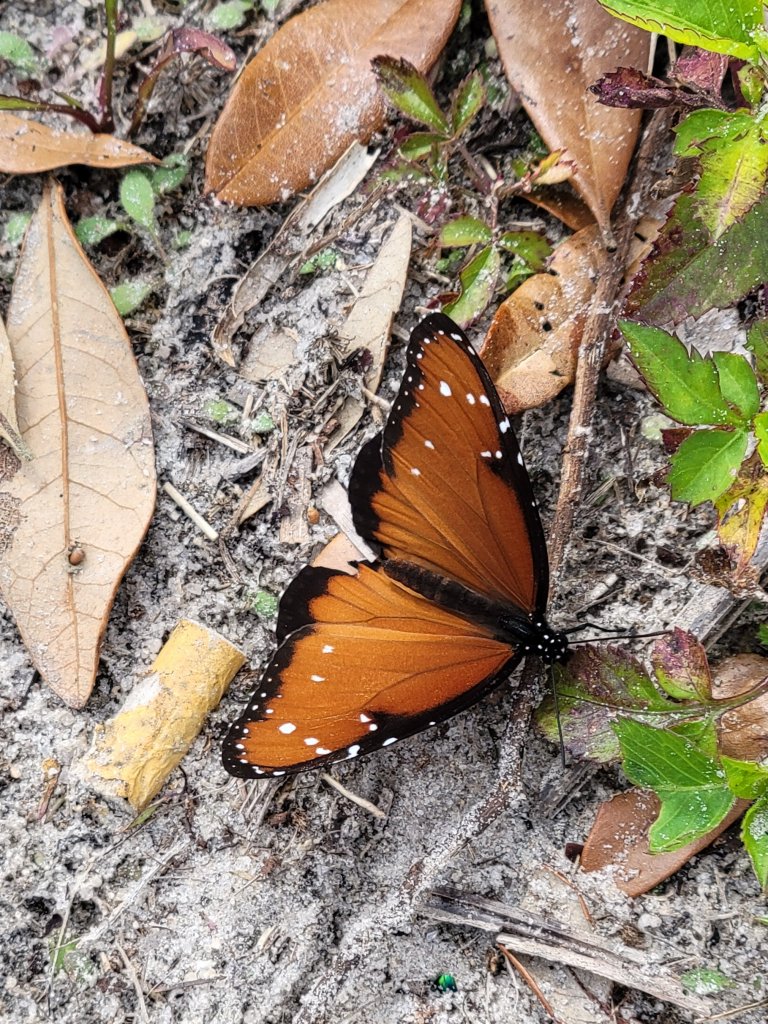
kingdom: Animalia
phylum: Arthropoda
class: Insecta
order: Lepidoptera
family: Nymphalidae
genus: Danaus
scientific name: Danaus gilippus
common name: Queen
